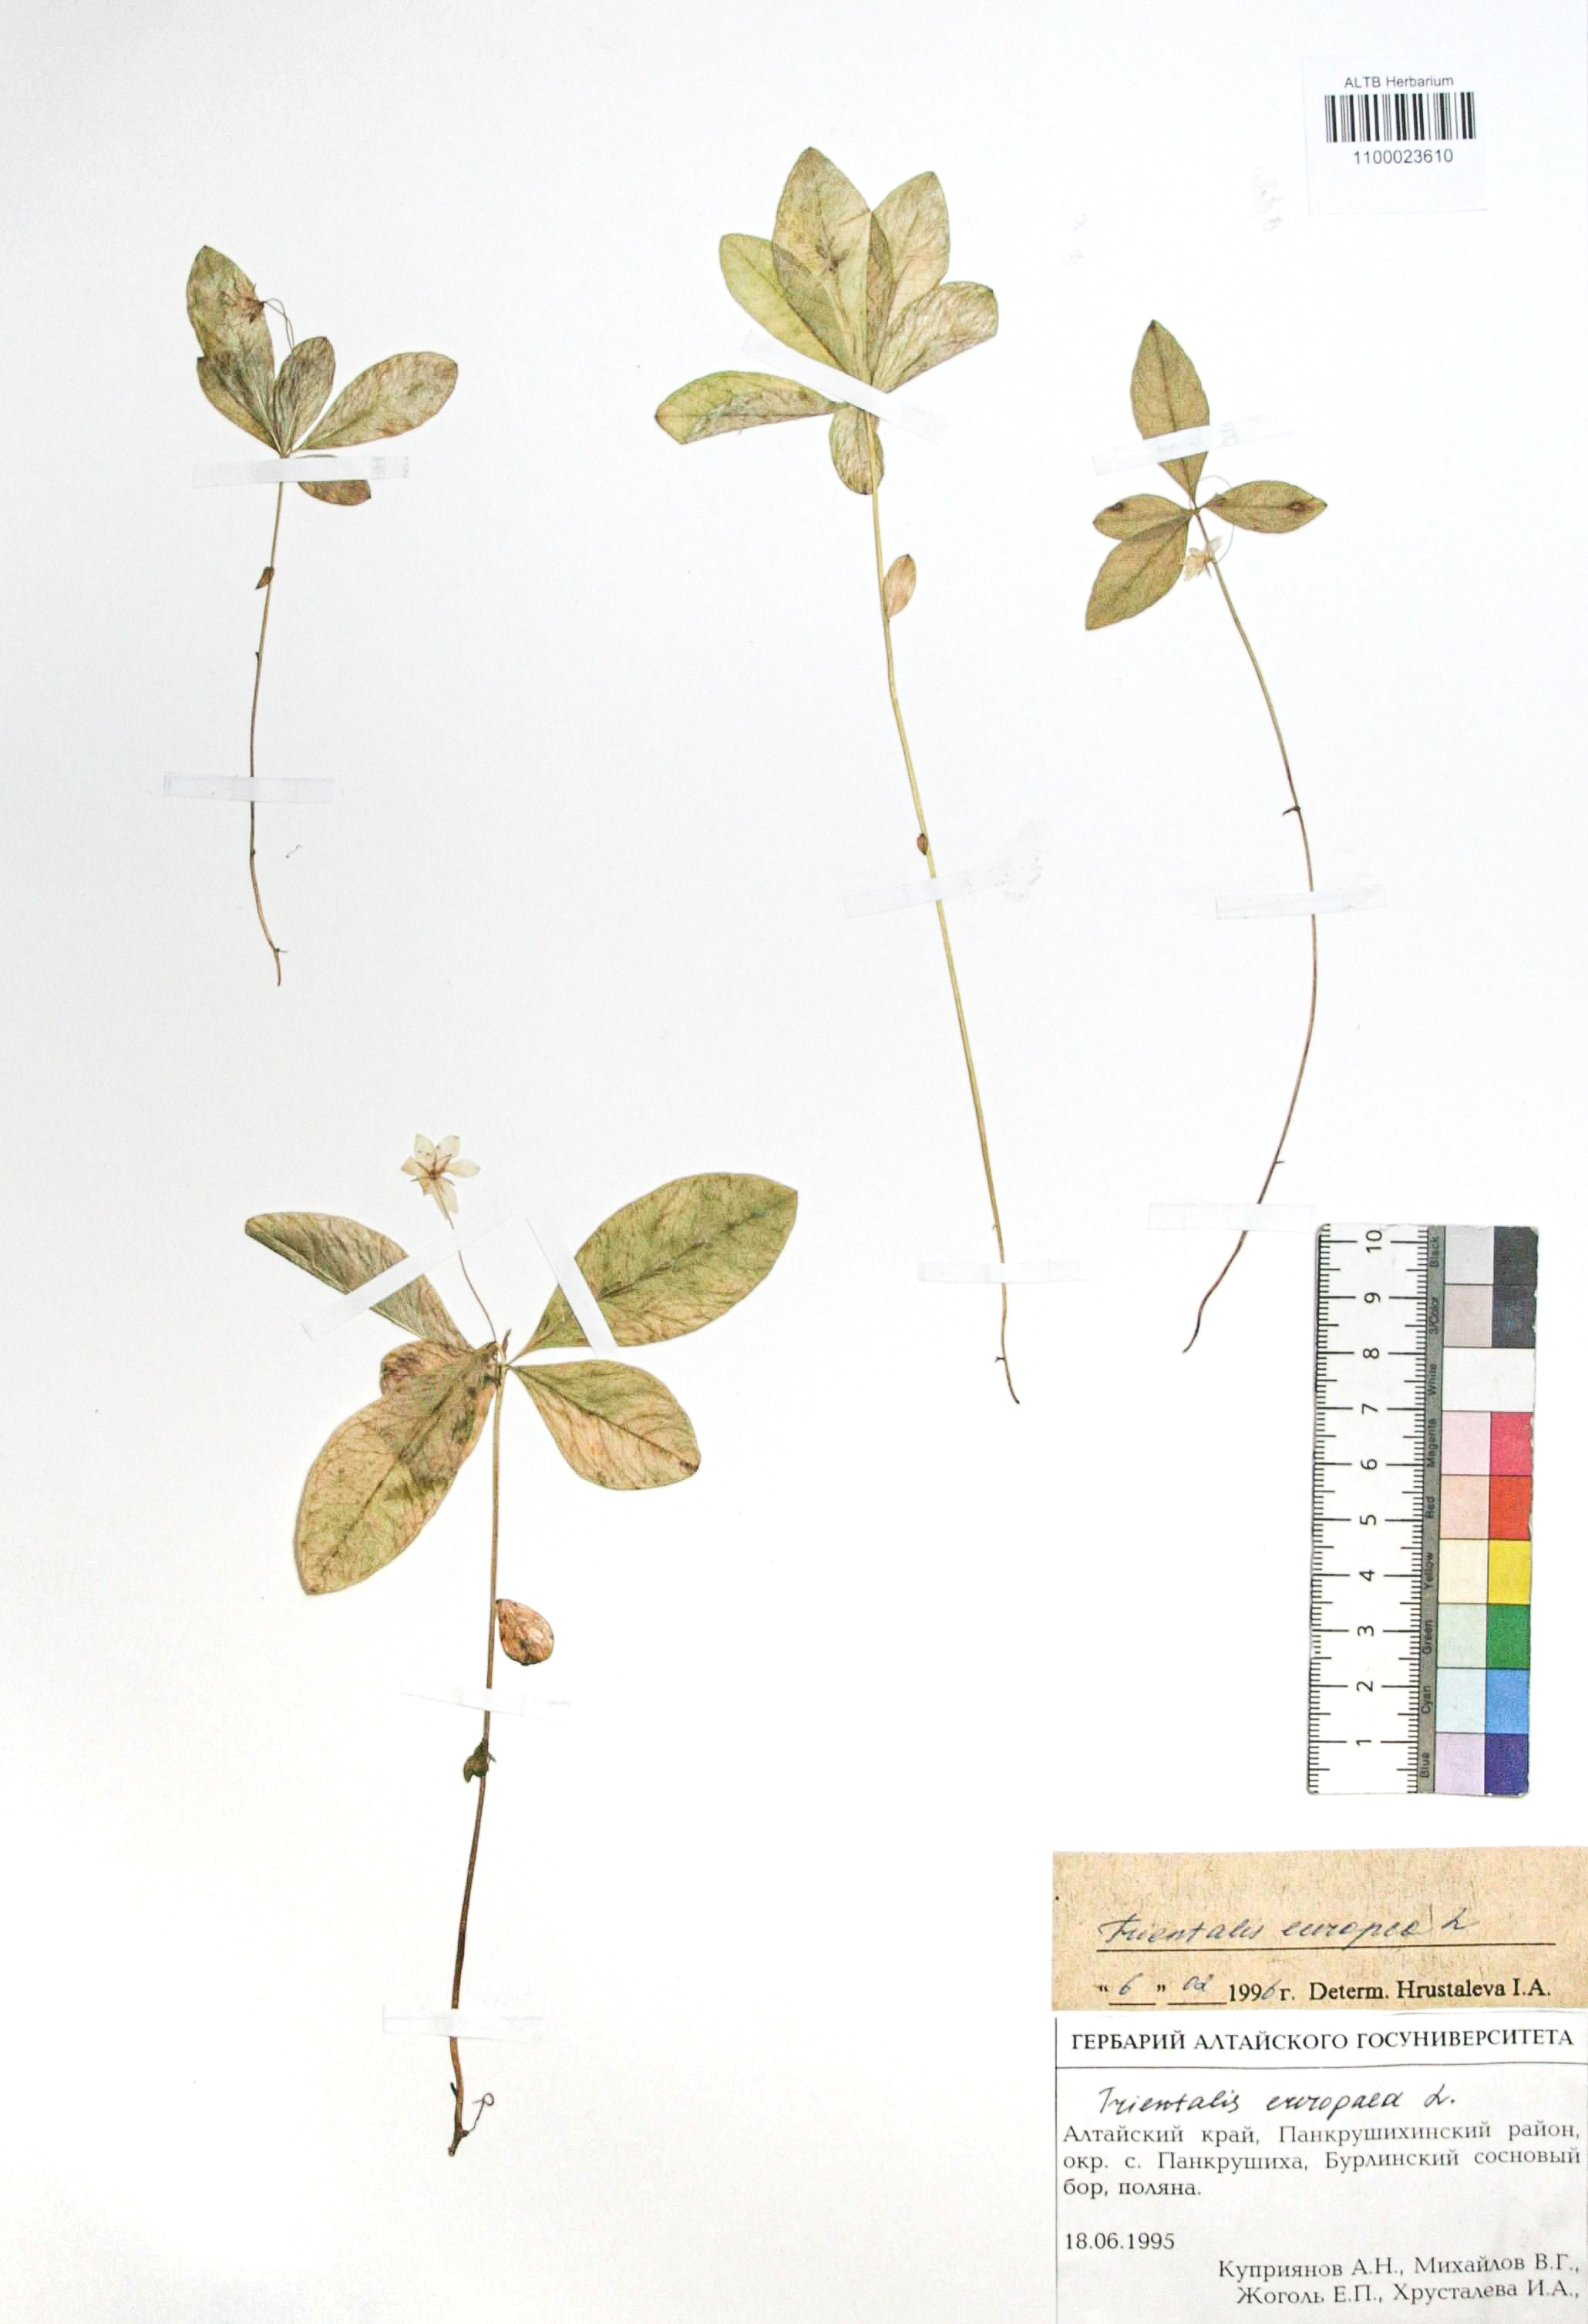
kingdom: Plantae
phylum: Tracheophyta
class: Magnoliopsida
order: Ericales
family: Primulaceae
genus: Lysimachia
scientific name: Lysimachia europaea
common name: Arctic starflower
